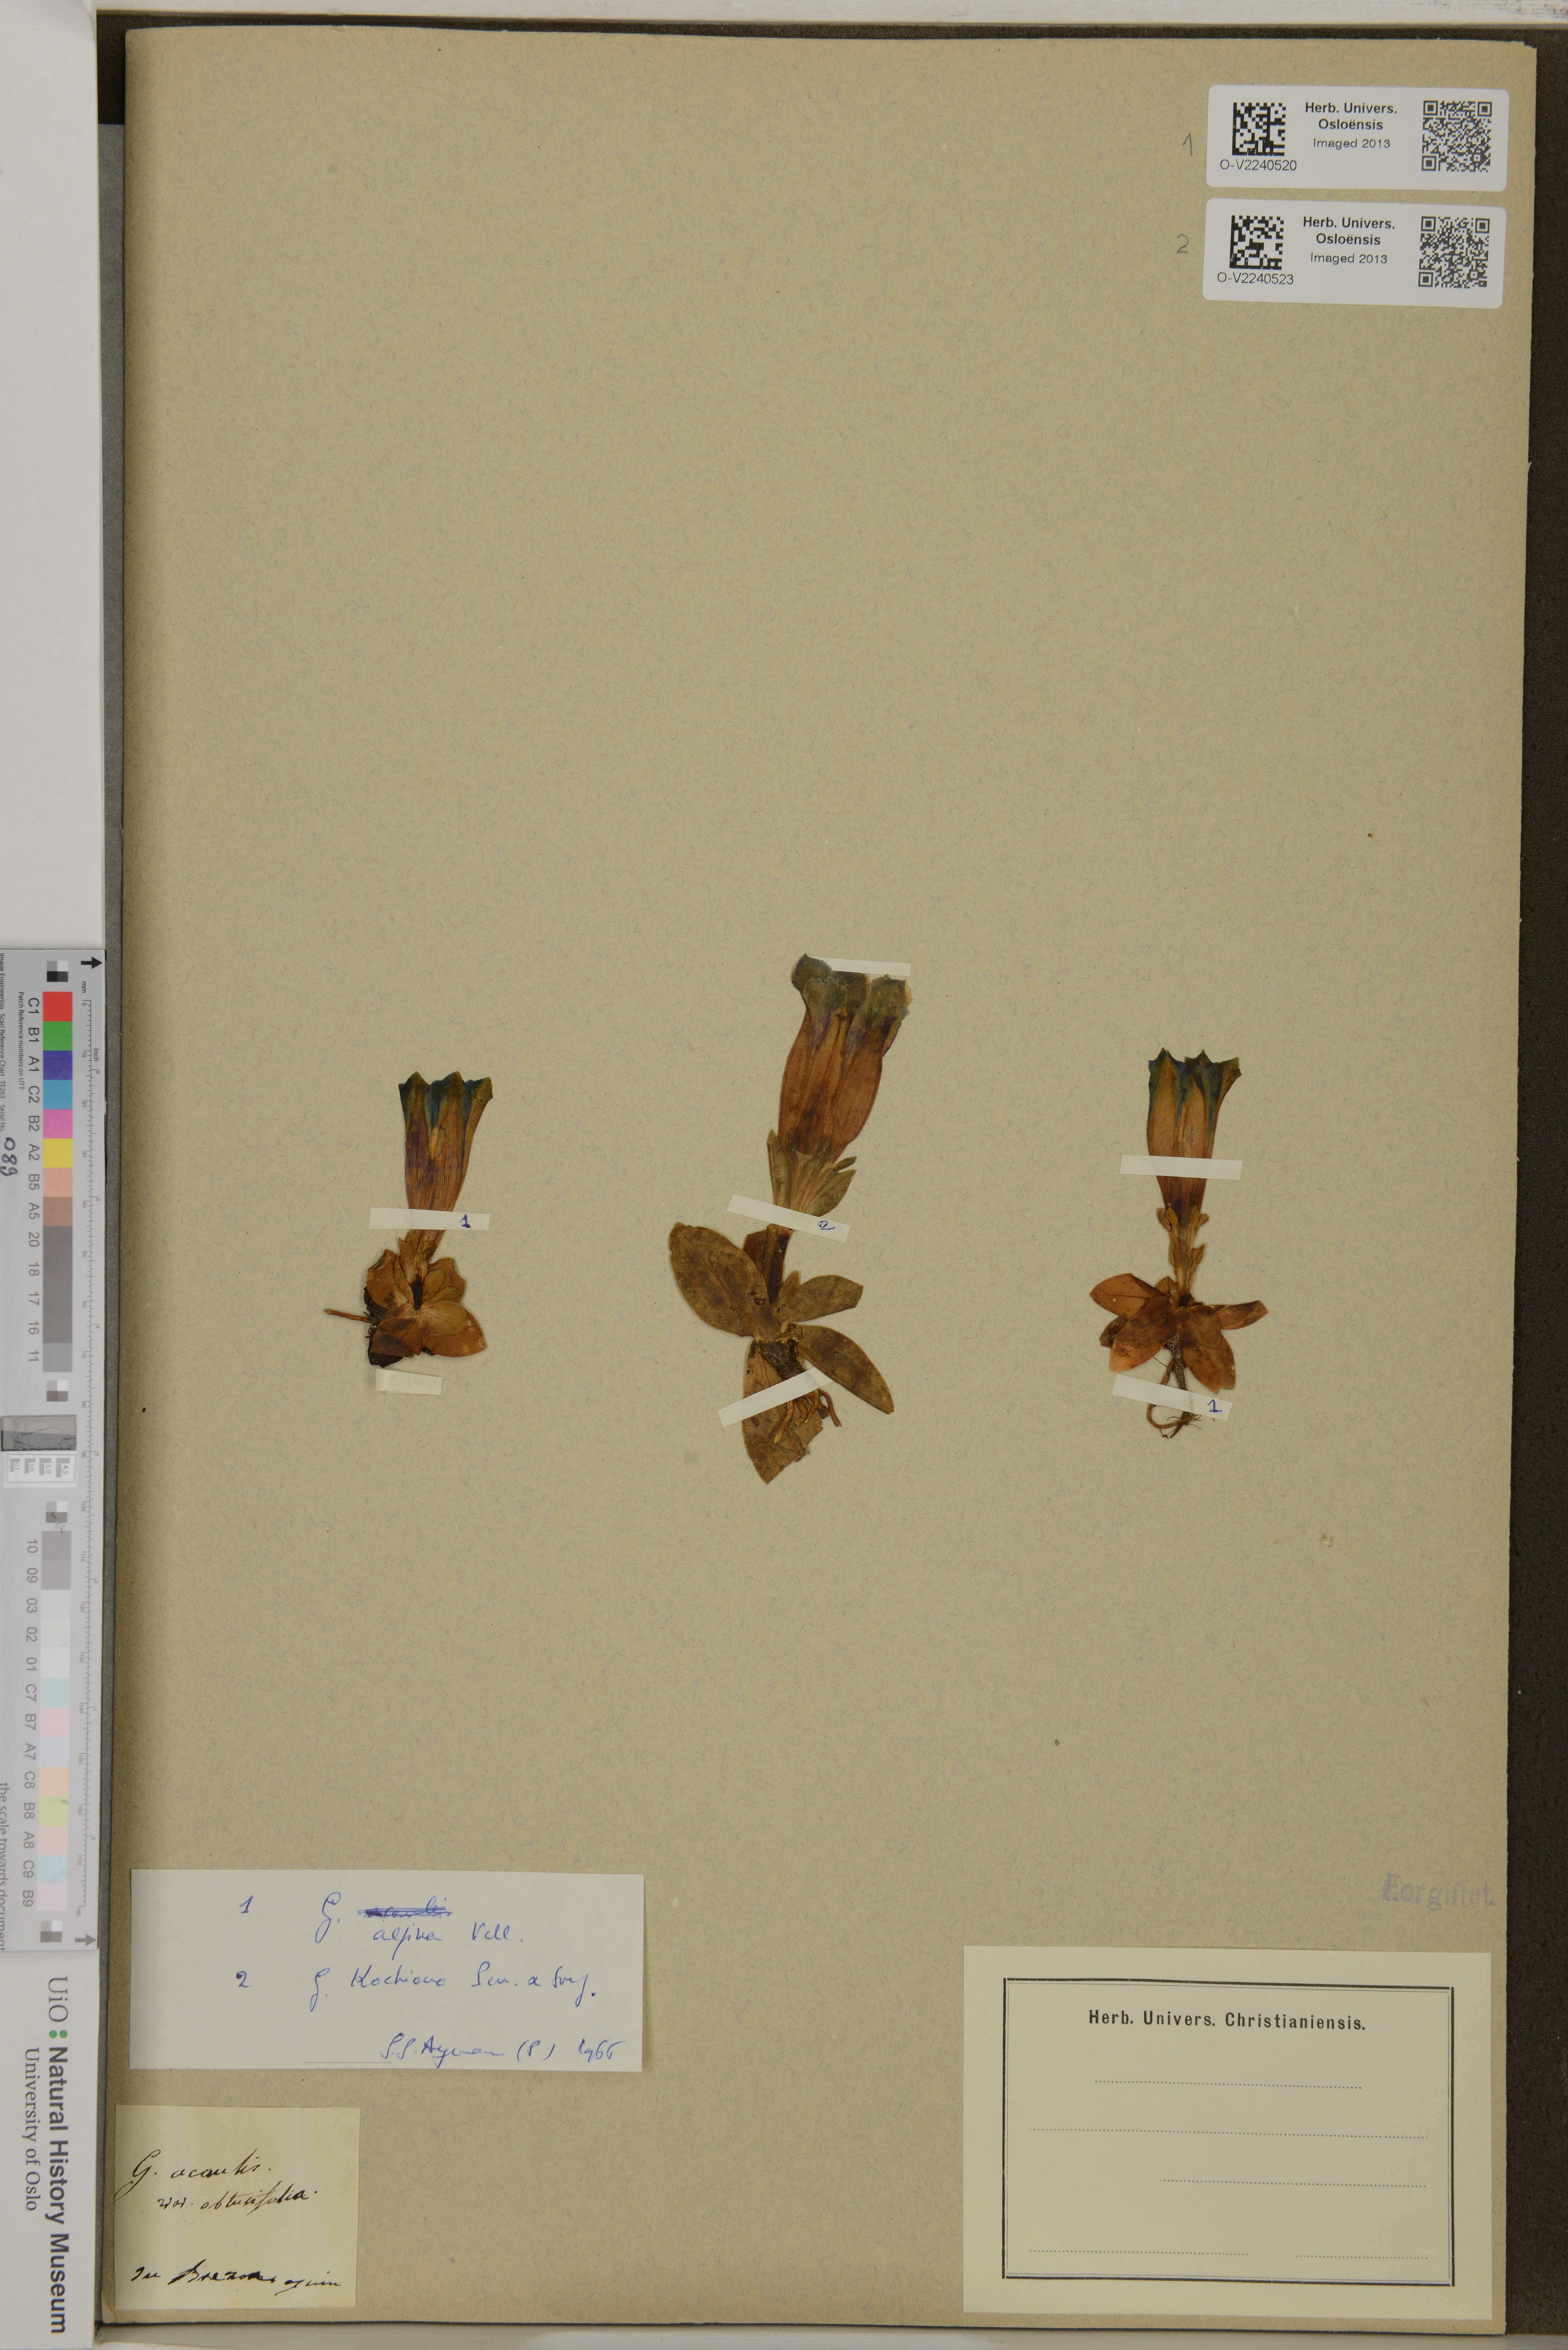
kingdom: Plantae
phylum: Tracheophyta
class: Magnoliopsida
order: Gentianales
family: Gentianaceae
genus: Gentiana
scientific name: Gentiana acaulis
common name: Trumpet gentian
